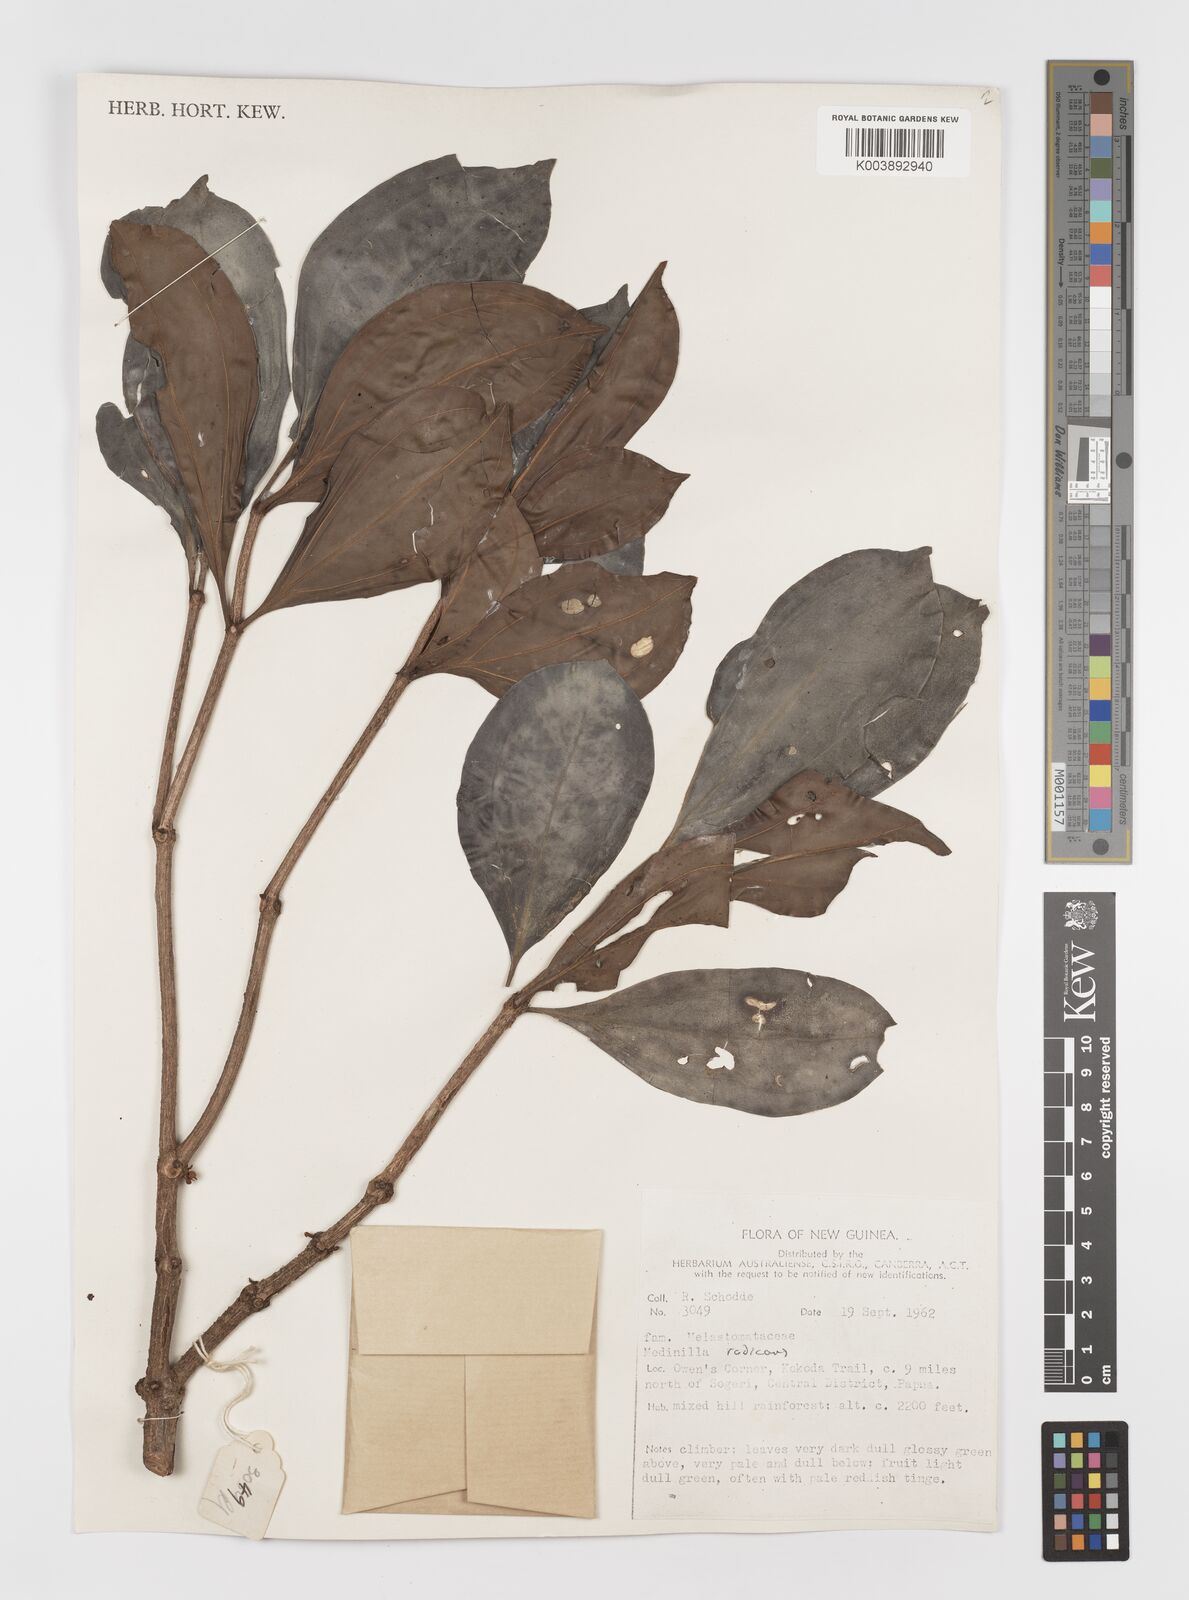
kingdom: Plantae
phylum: Tracheophyta
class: Magnoliopsida
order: Myrtales
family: Melastomataceae
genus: Medinilla
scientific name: Medinilla beddomei
